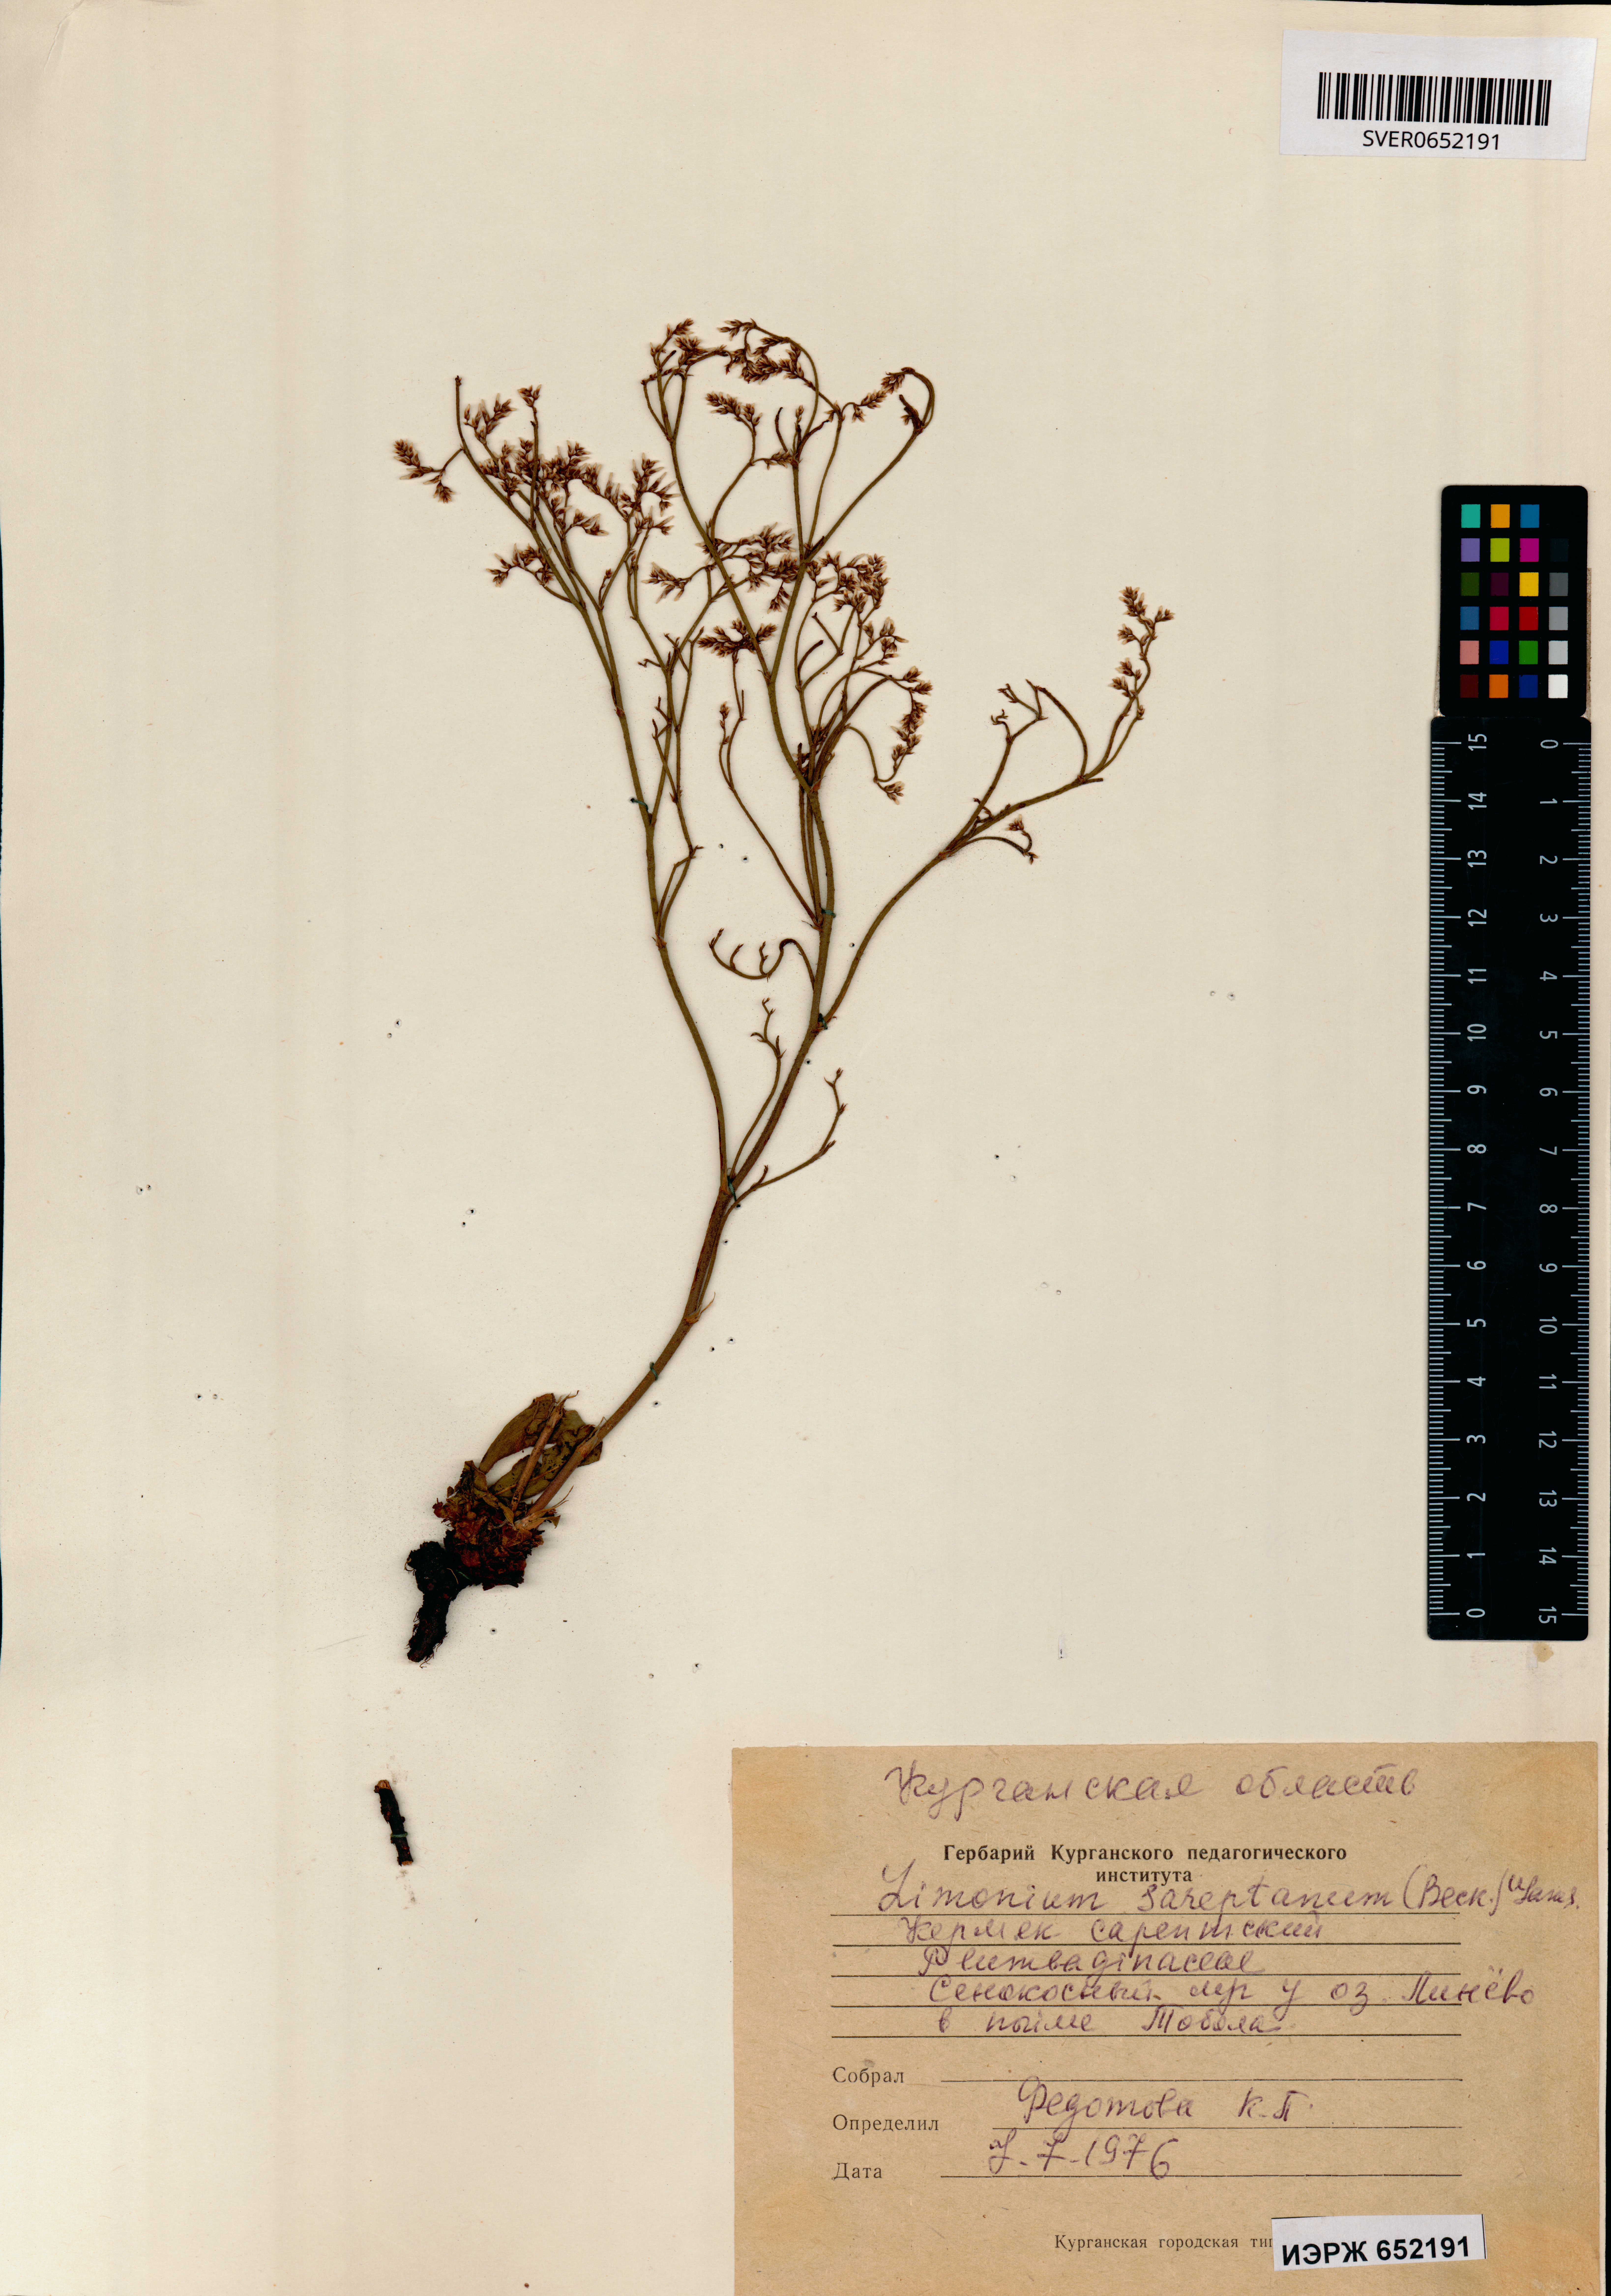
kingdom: Plantae
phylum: Tracheophyta
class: Magnoliopsida
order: Caryophyllales
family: Plumbaginaceae
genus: Limonium
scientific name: Limonium sareptanum
